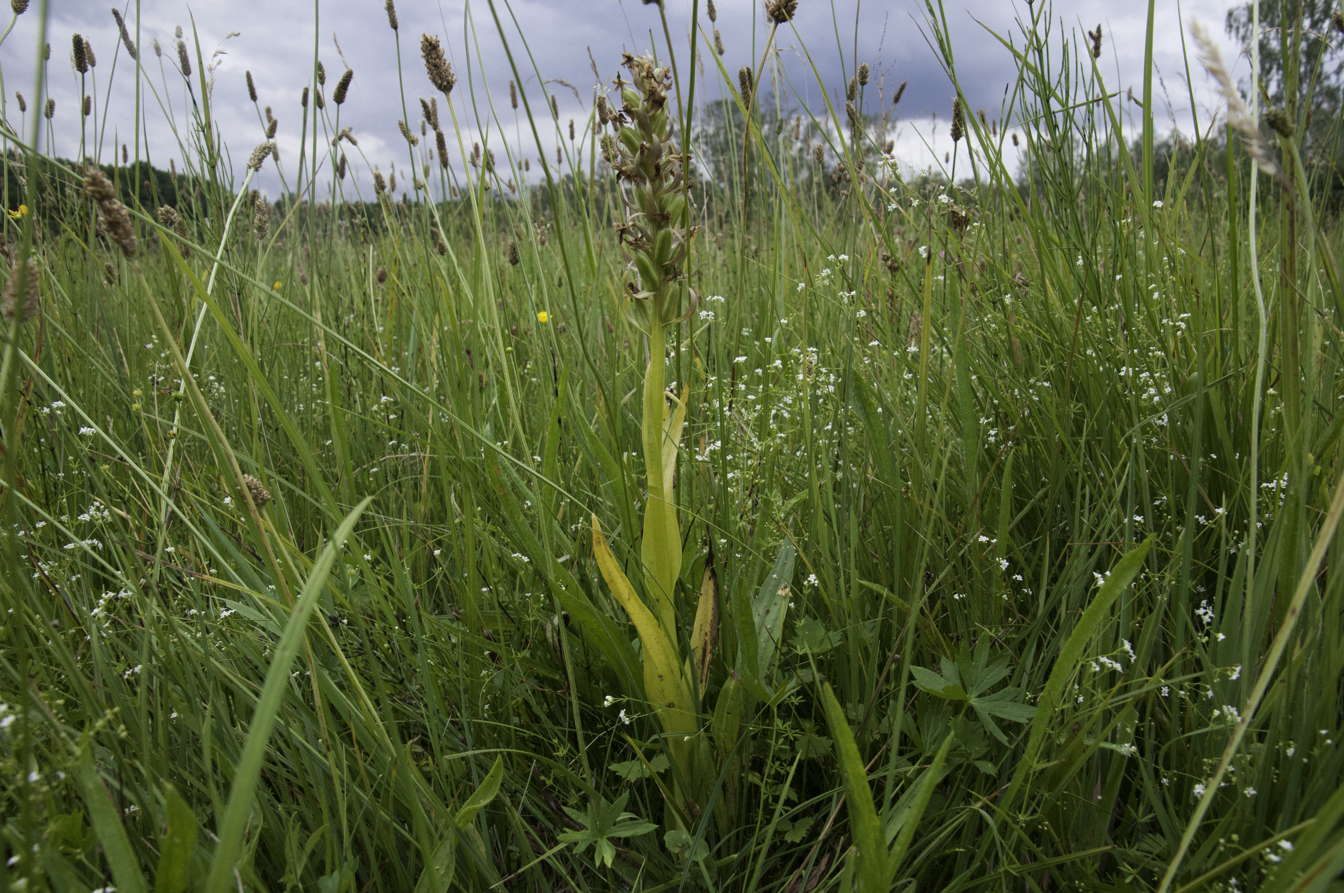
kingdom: Plantae
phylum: Tracheophyta
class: Liliopsida
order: Asparagales
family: Orchidaceae
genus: Dactylorhiza
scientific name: Dactylorhiza incarnata
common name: Early marsh-orchid
